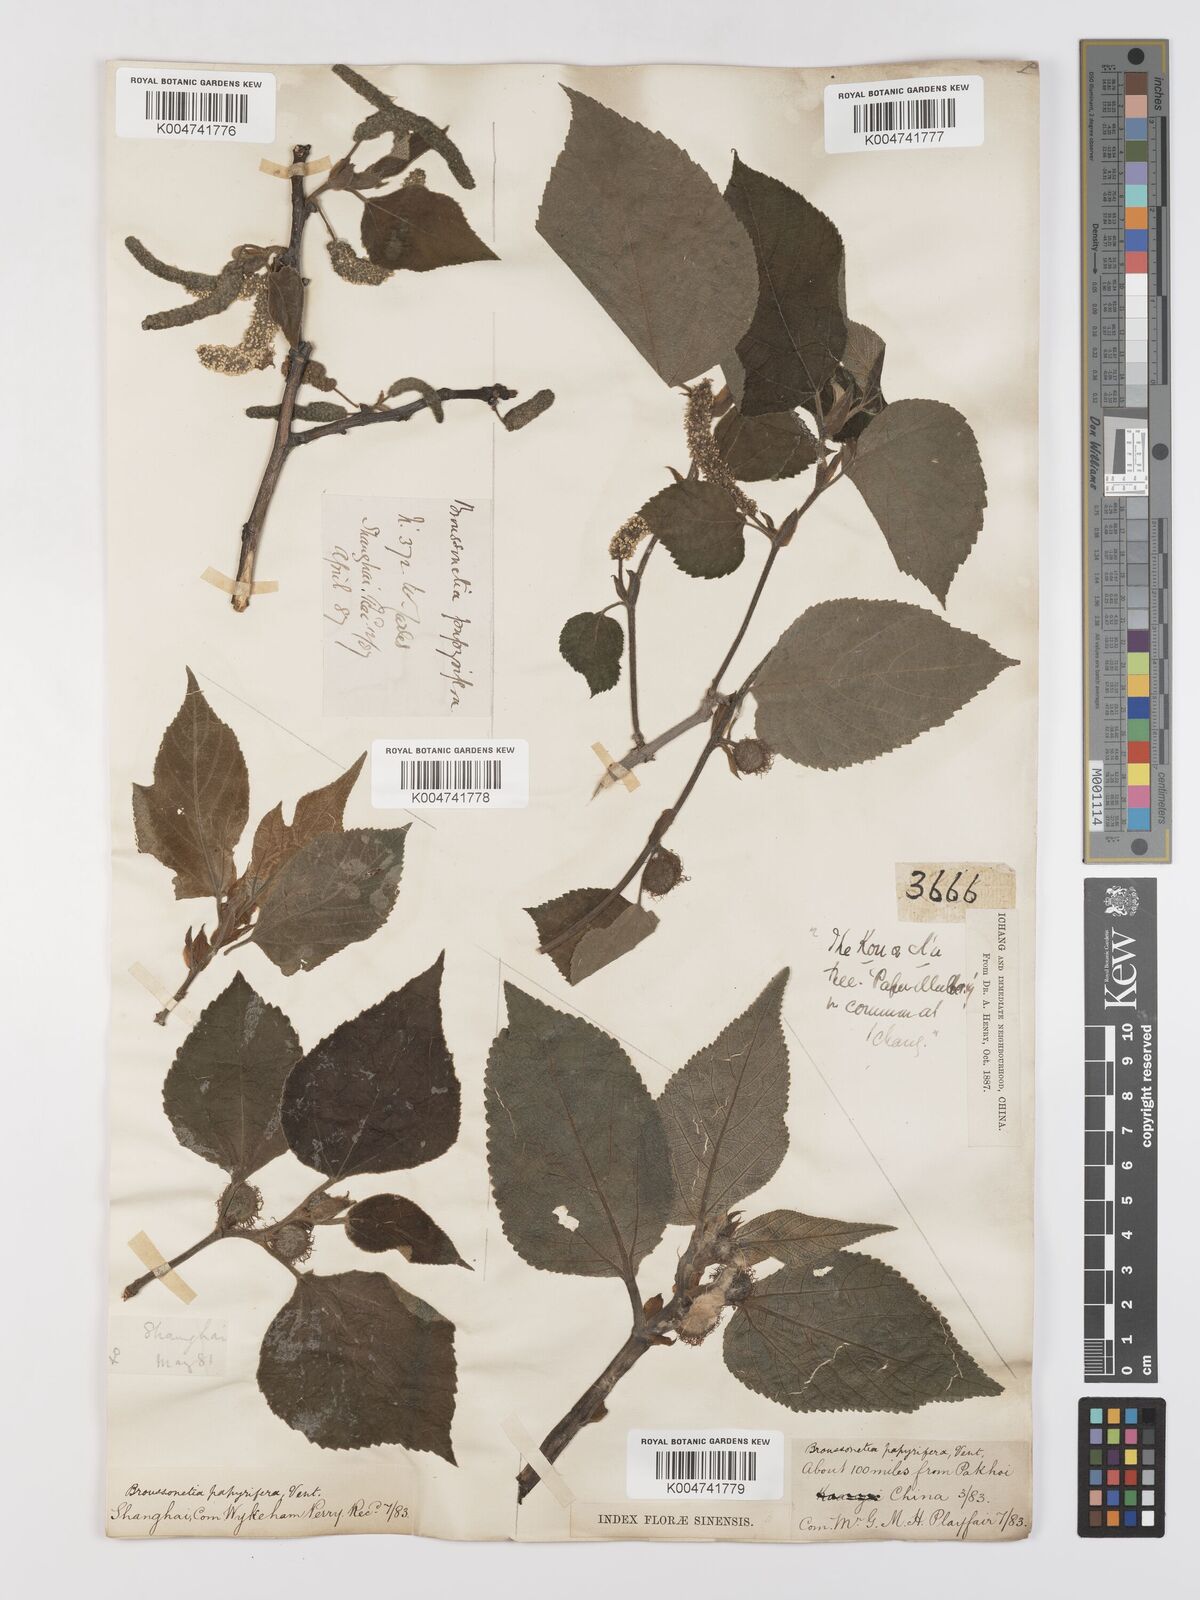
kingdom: Plantae
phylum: Tracheophyta
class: Magnoliopsida
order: Rosales
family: Moraceae
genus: Broussonetia
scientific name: Broussonetia papyrifera
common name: Paper mulberry
